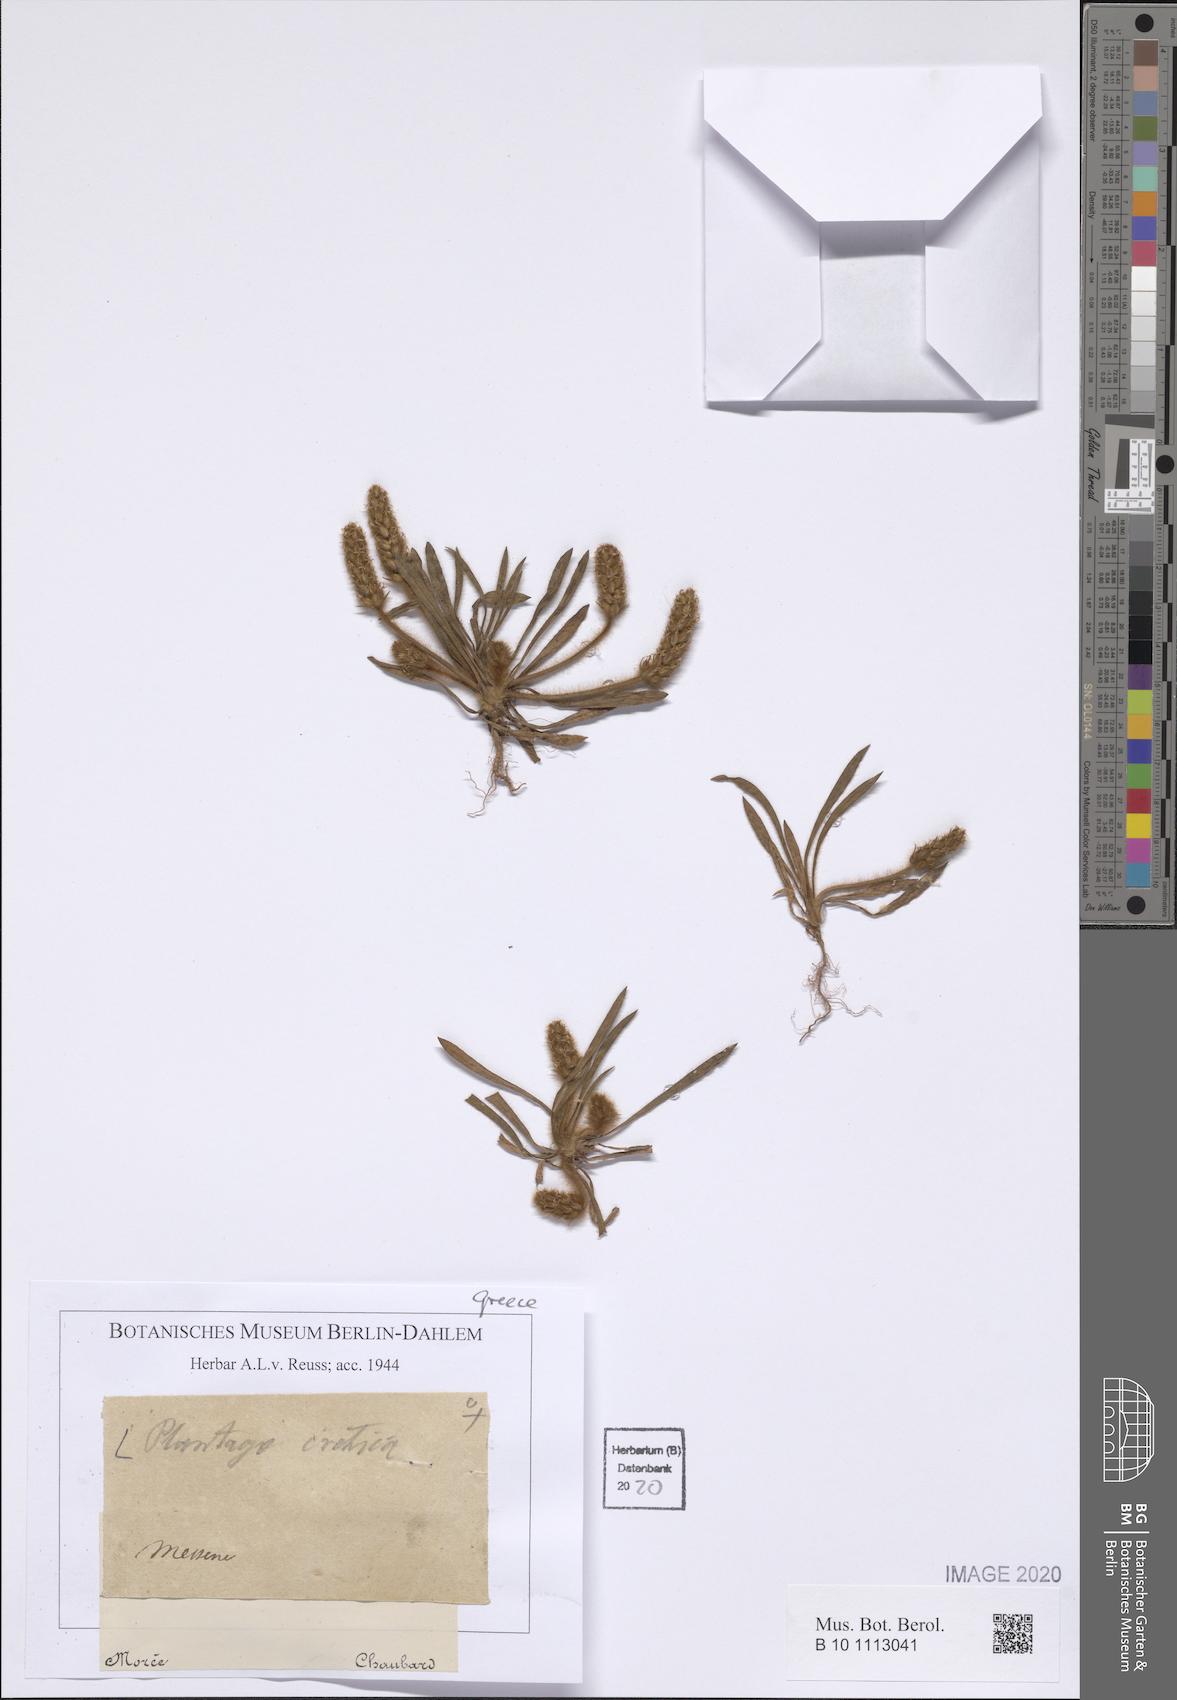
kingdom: Plantae
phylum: Tracheophyta
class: Magnoliopsida
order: Lamiales
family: Plantaginaceae
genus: Plantago
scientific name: Plantago cretica
